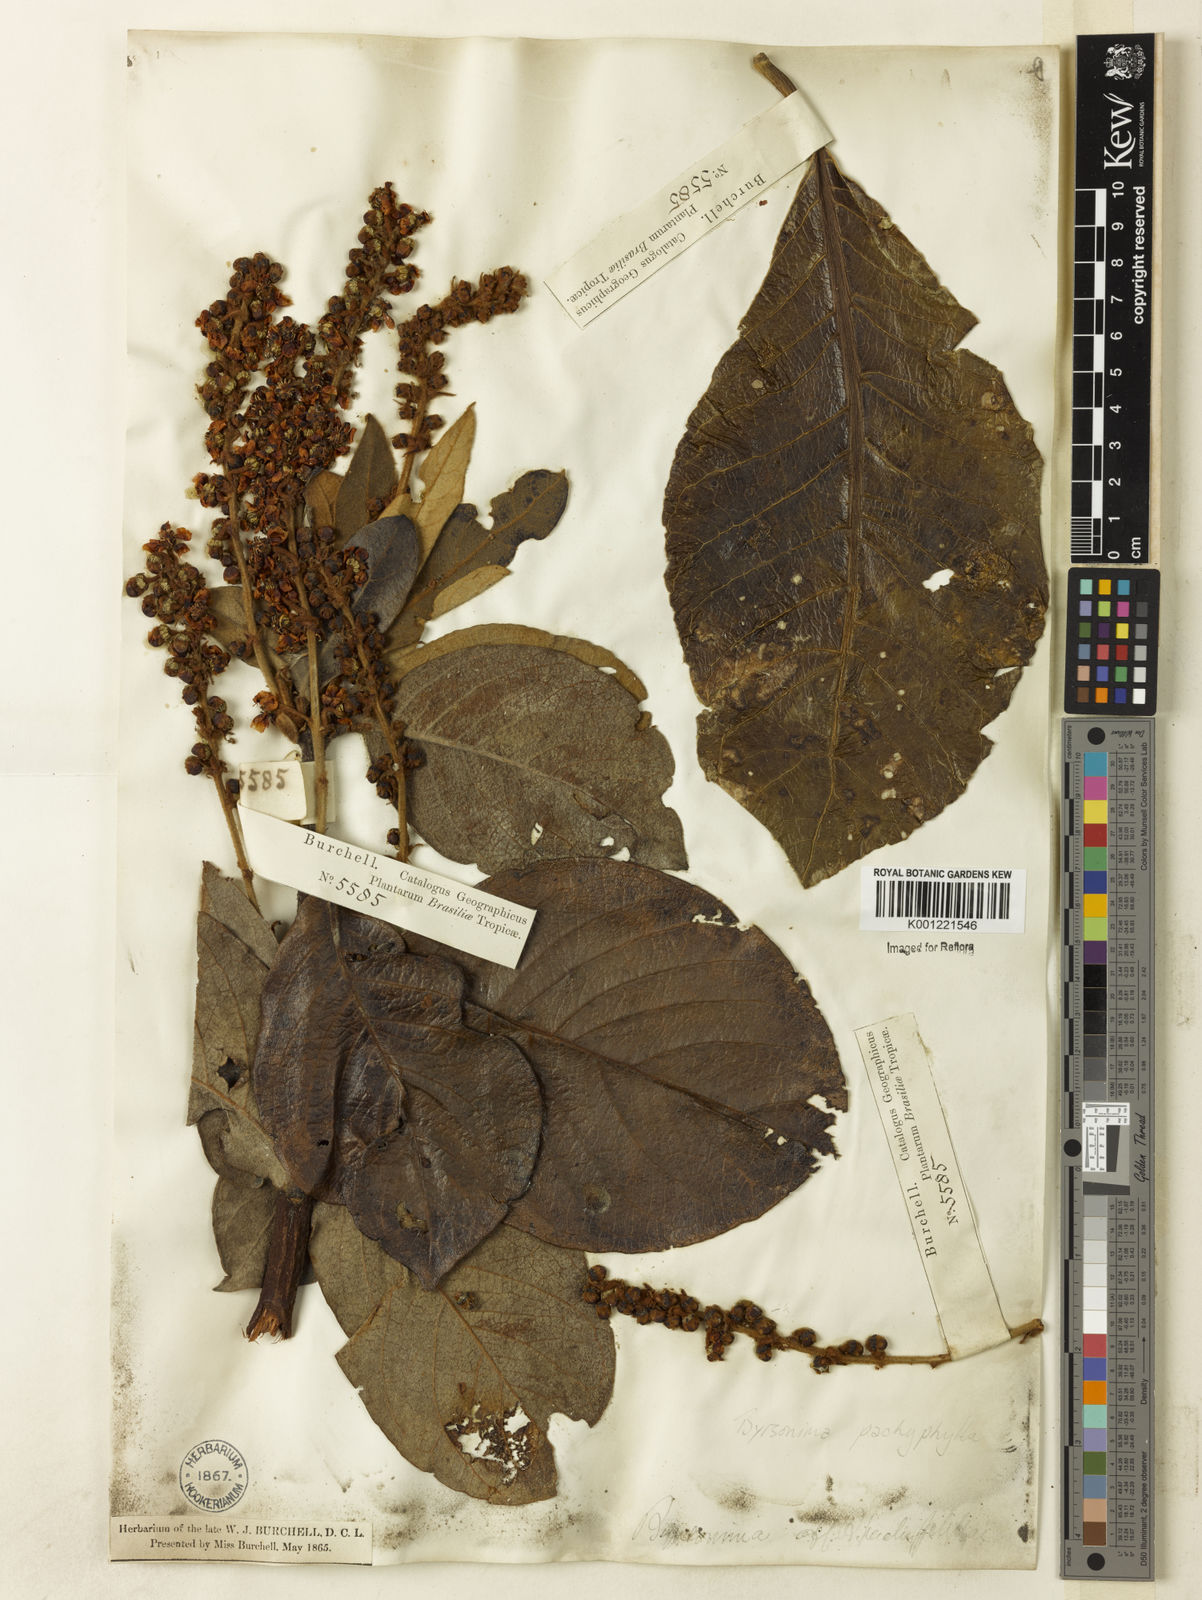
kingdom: Plantae
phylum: Tracheophyta
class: Magnoliopsida
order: Malpighiales
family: Malpighiaceae
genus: Byrsonima
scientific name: Byrsonima pachyphylla
